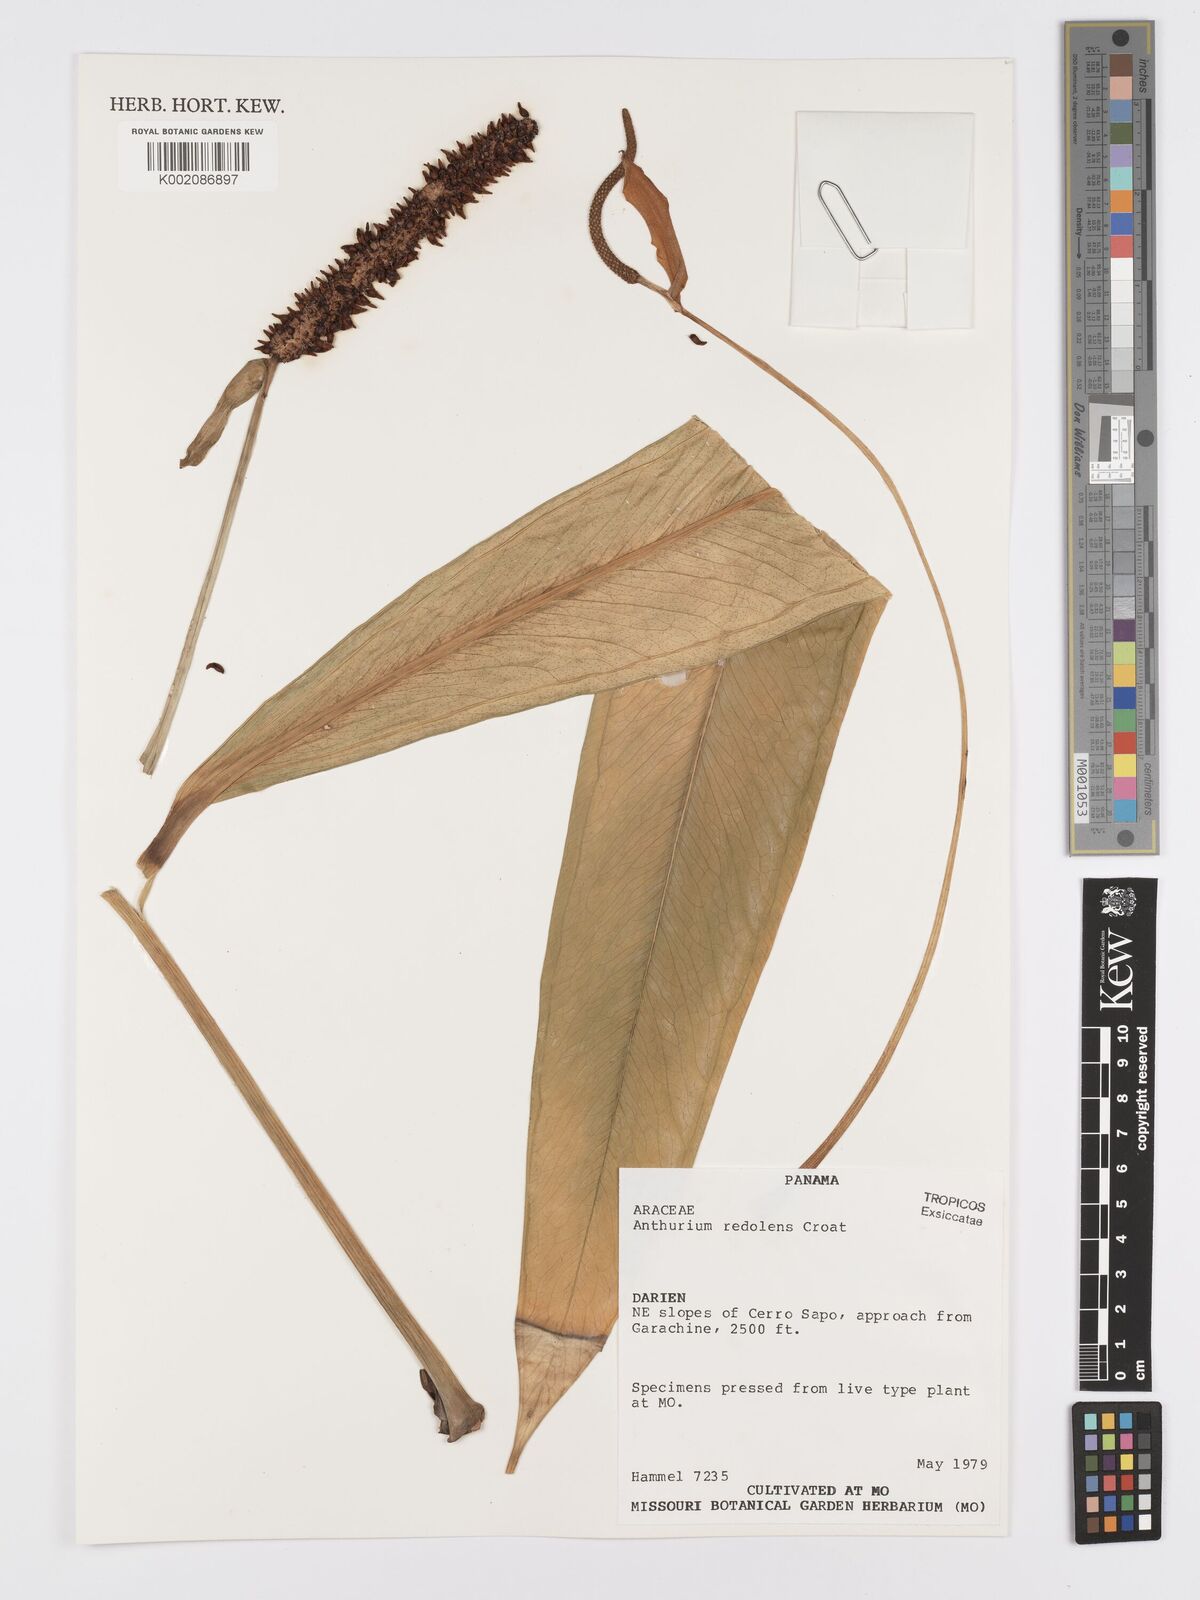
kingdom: Plantae
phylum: Tracheophyta
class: Liliopsida
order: Alismatales
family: Araceae
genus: Anthurium
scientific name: Anthurium redolens
